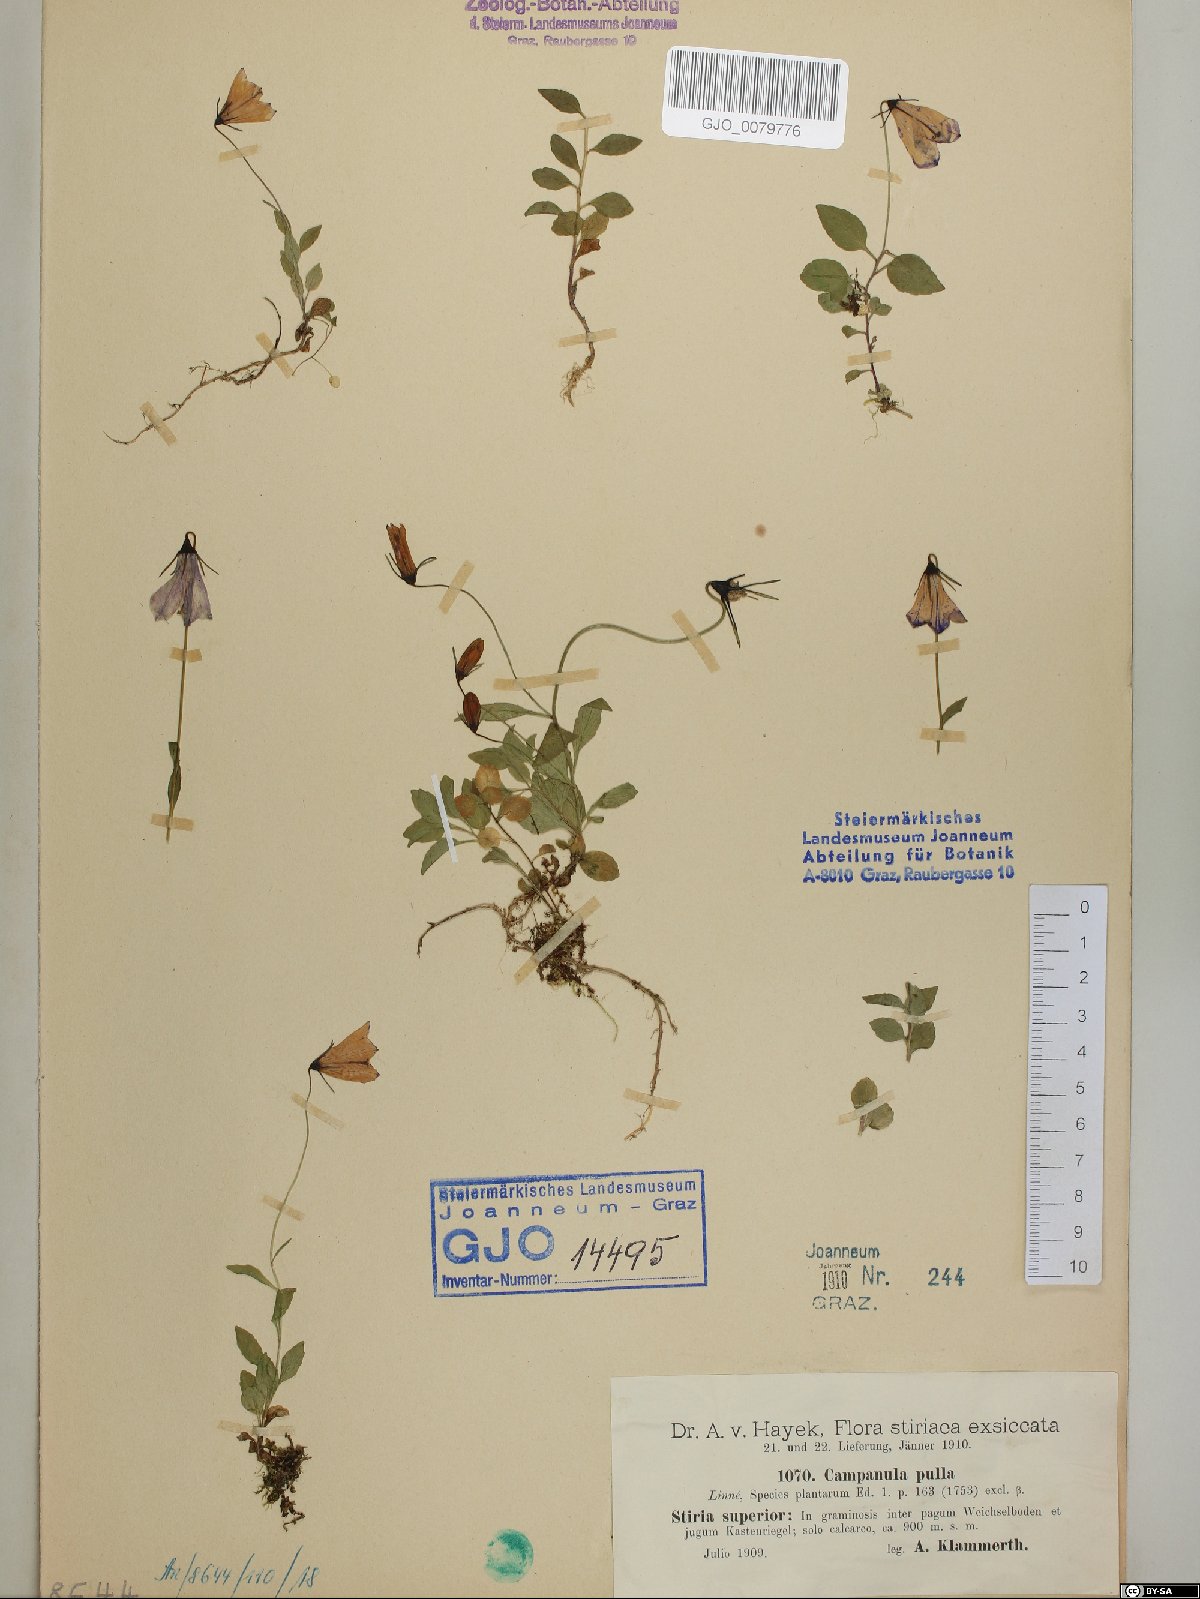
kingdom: Plantae
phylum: Tracheophyta
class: Magnoliopsida
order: Asterales
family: Campanulaceae
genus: Campanula
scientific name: Campanula pulla
